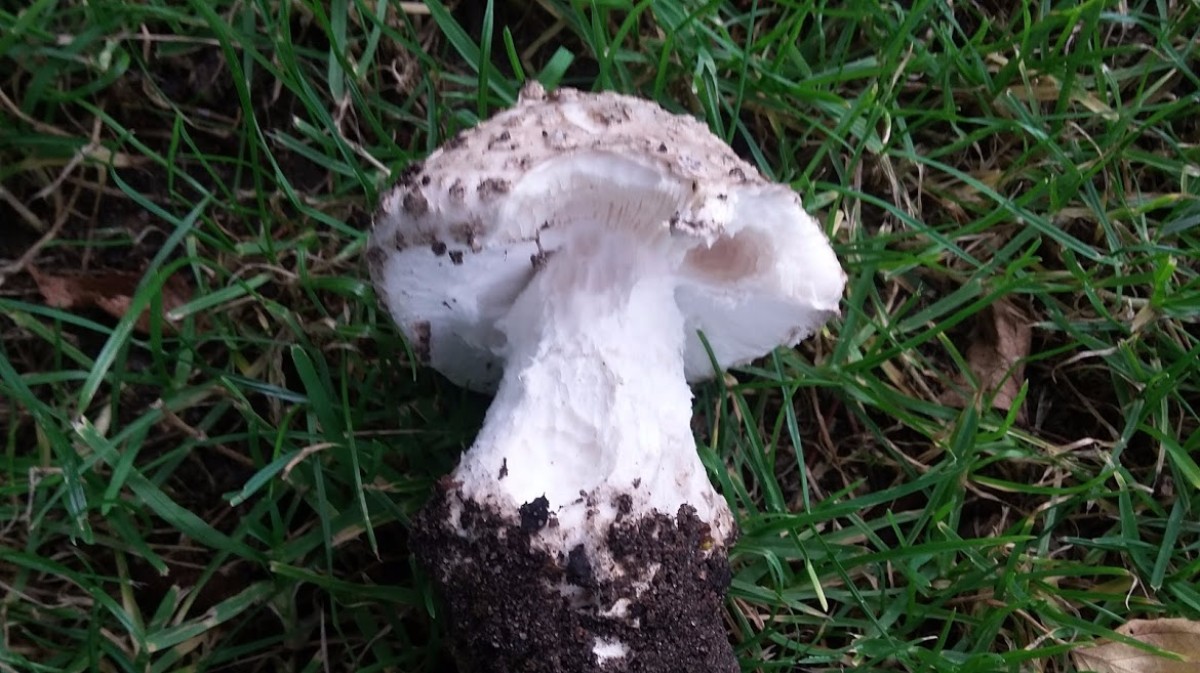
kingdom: Fungi
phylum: Basidiomycota
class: Agaricomycetes
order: Agaricales
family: Amanitaceae
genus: Amanita
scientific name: Amanita
